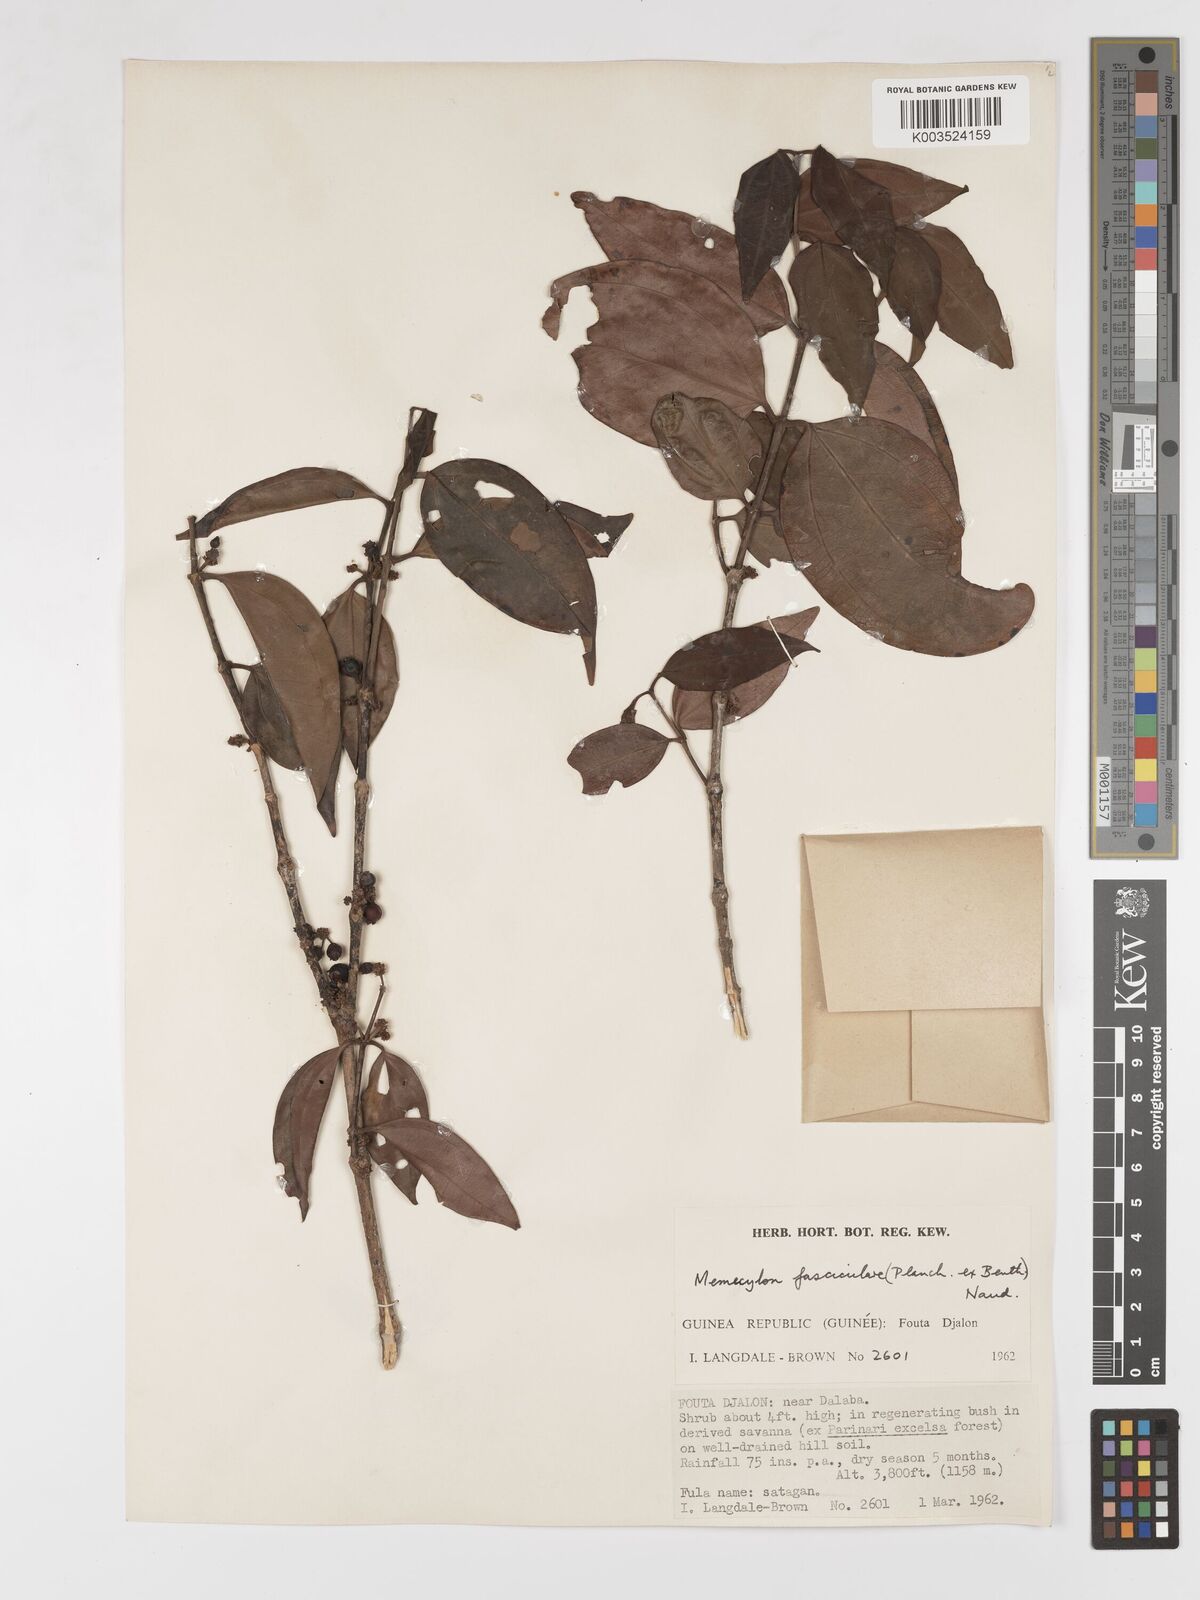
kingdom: Plantae
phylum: Tracheophyta
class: Magnoliopsida
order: Myrtales
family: Melastomataceae
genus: Warneckea
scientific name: Warneckea fascicularis
